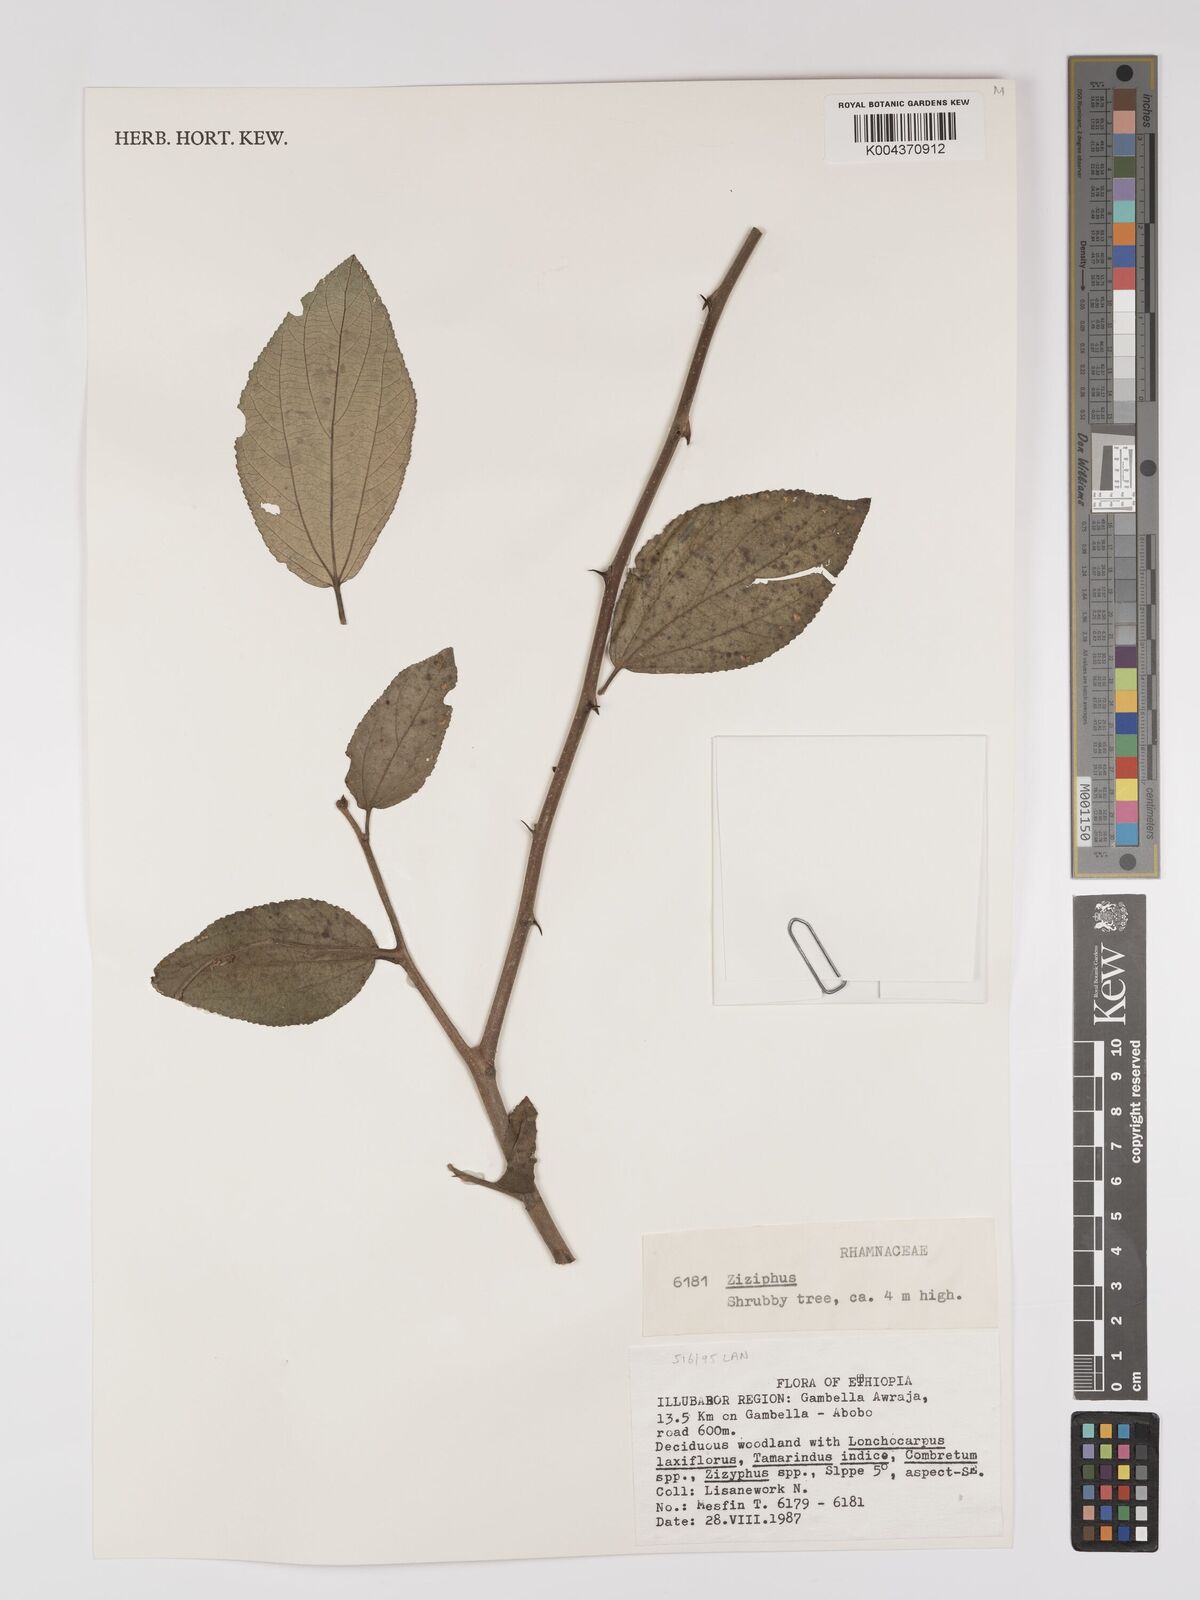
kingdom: Plantae
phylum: Tracheophyta
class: Magnoliopsida
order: Rosales
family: Rhamnaceae
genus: Ziziphus
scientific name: Ziziphus
